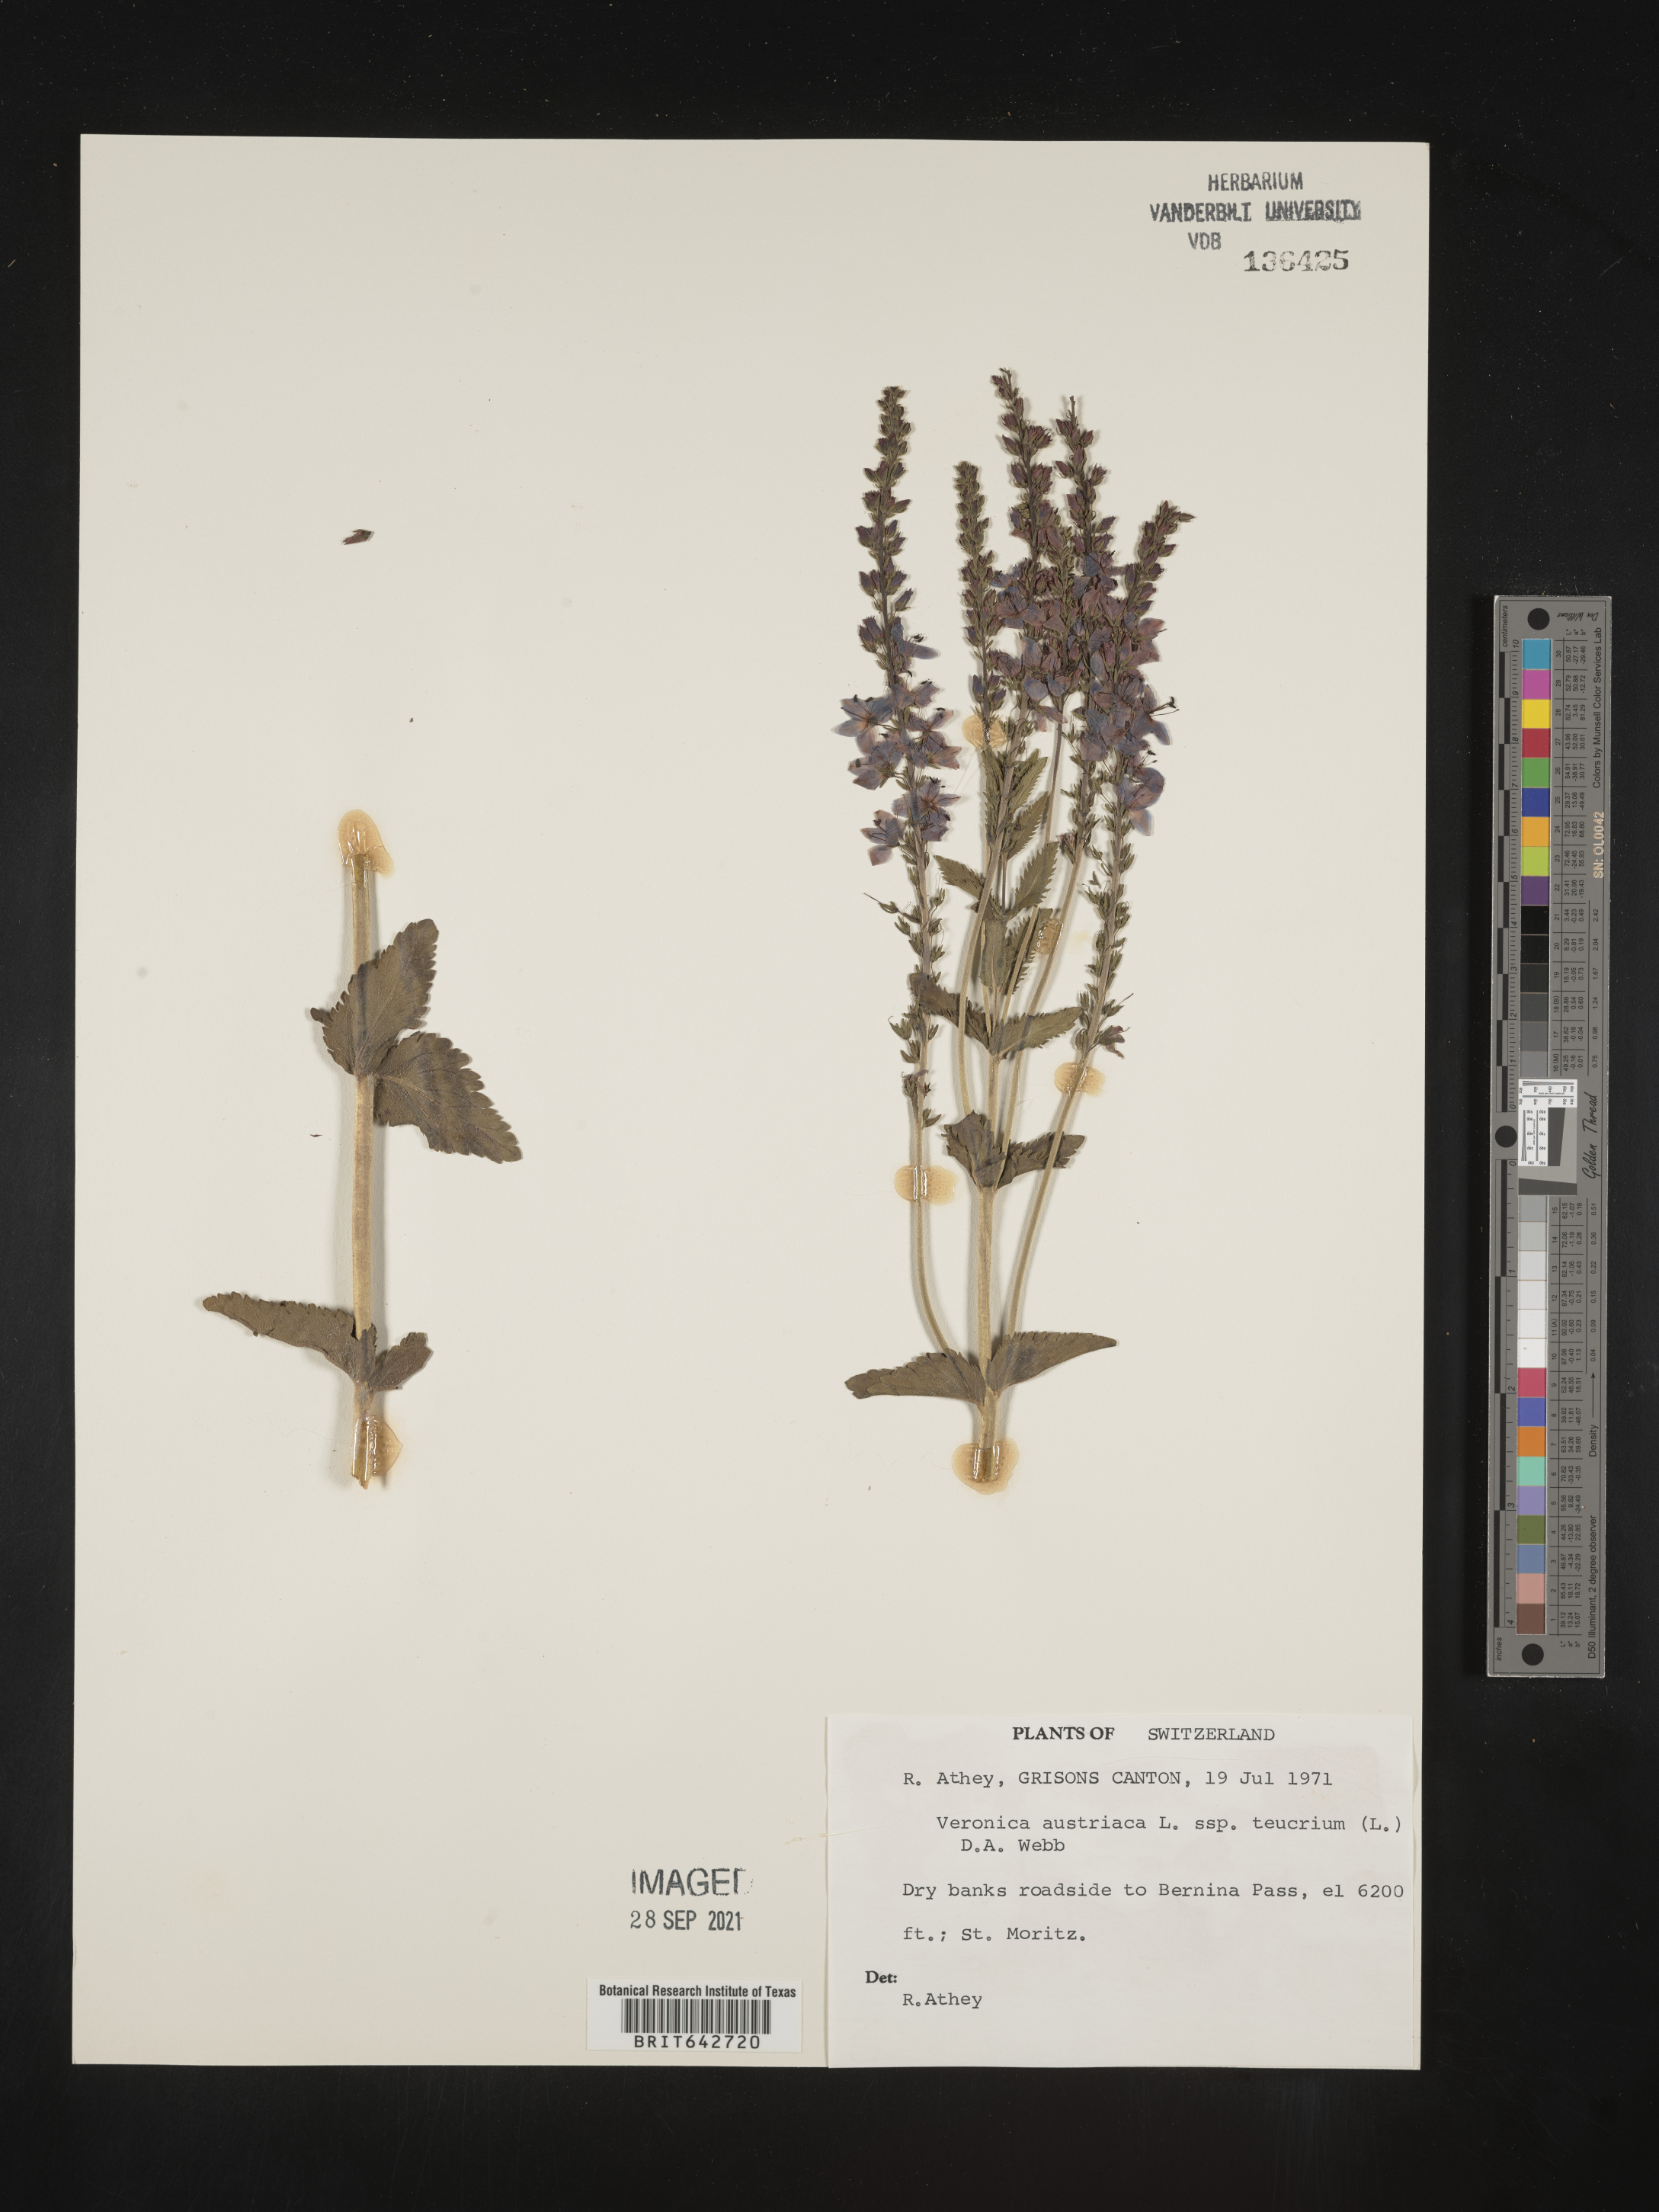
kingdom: Plantae
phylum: Tracheophyta
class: Magnoliopsida
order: Lamiales
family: Plantaginaceae
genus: Veronica
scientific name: Veronica
